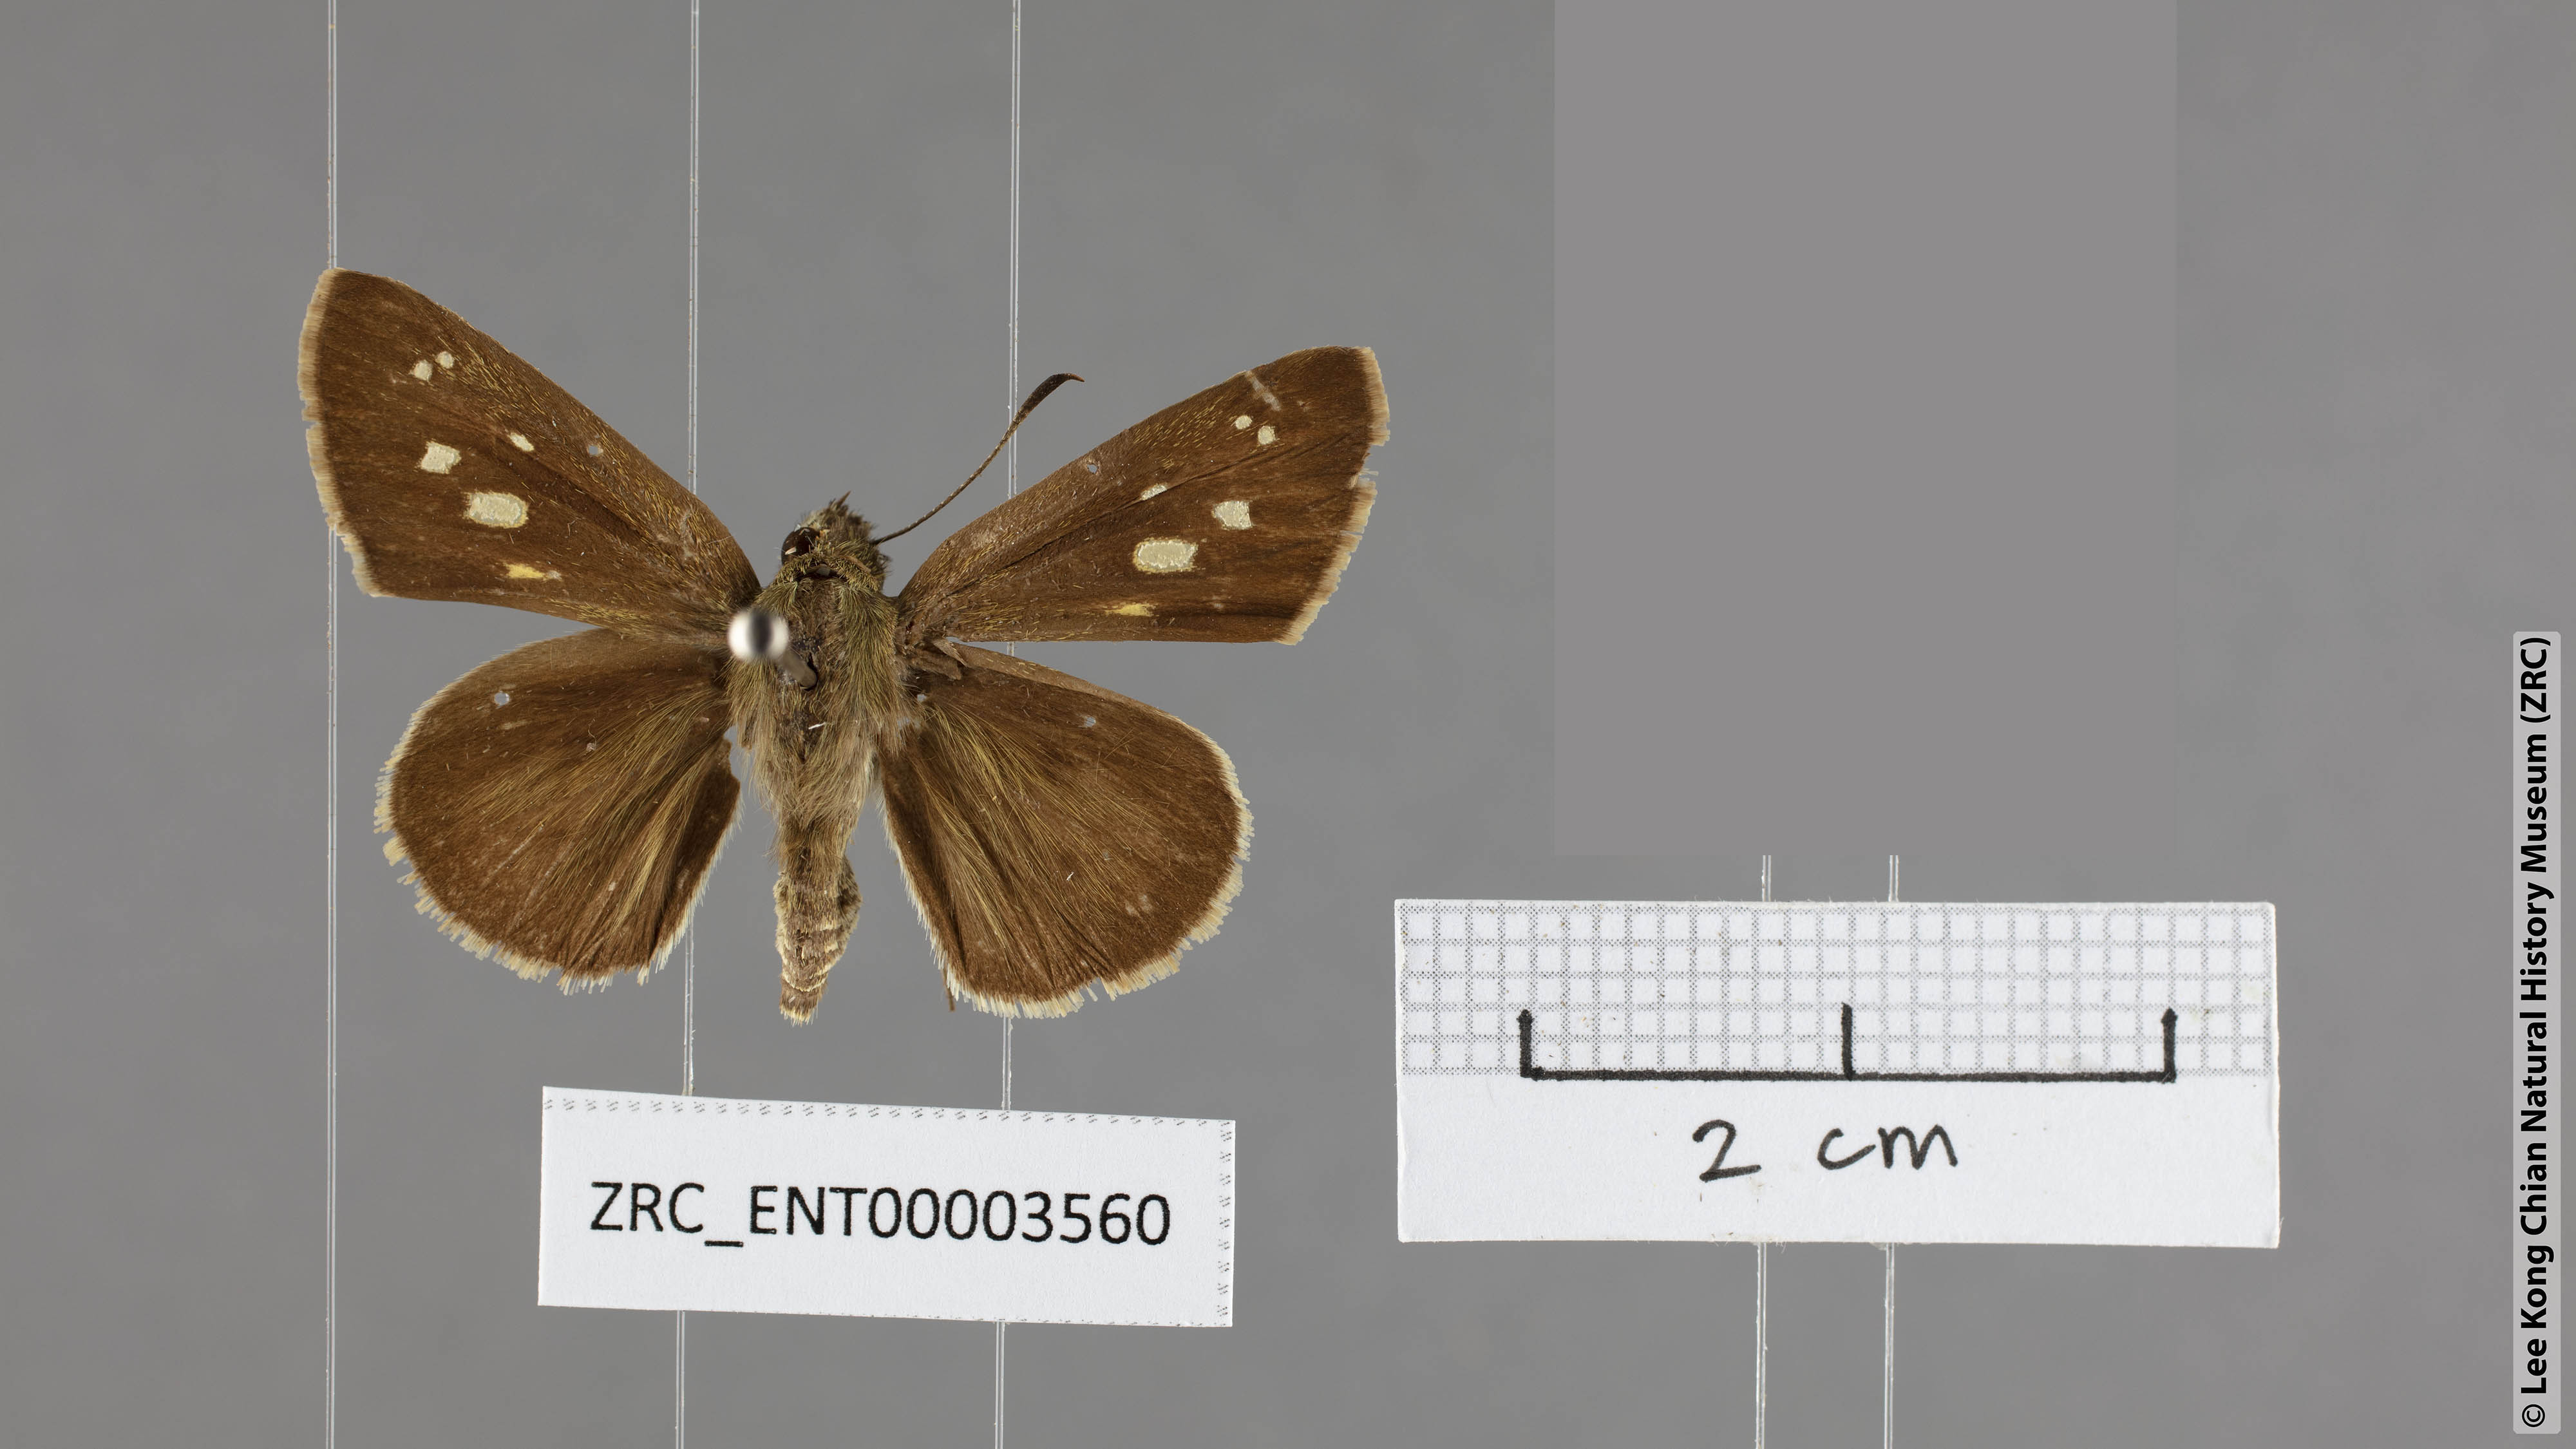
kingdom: Animalia
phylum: Arthropoda
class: Insecta
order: Lepidoptera
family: Hesperiidae
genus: Suastus
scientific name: Suastus gremius
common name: Indian palm bob
